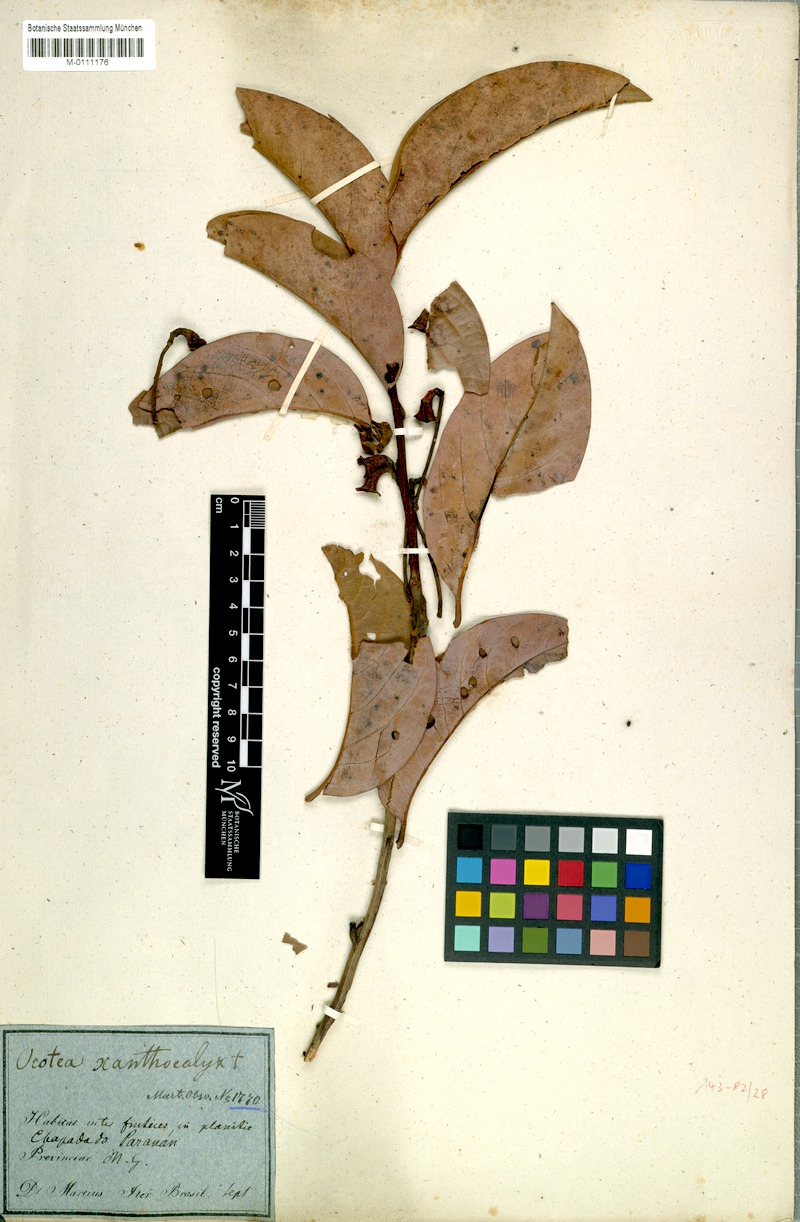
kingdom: Plantae
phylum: Tracheophyta
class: Magnoliopsida
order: Laurales
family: Lauraceae
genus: Ocotea
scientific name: Ocotea xanthocalyx
